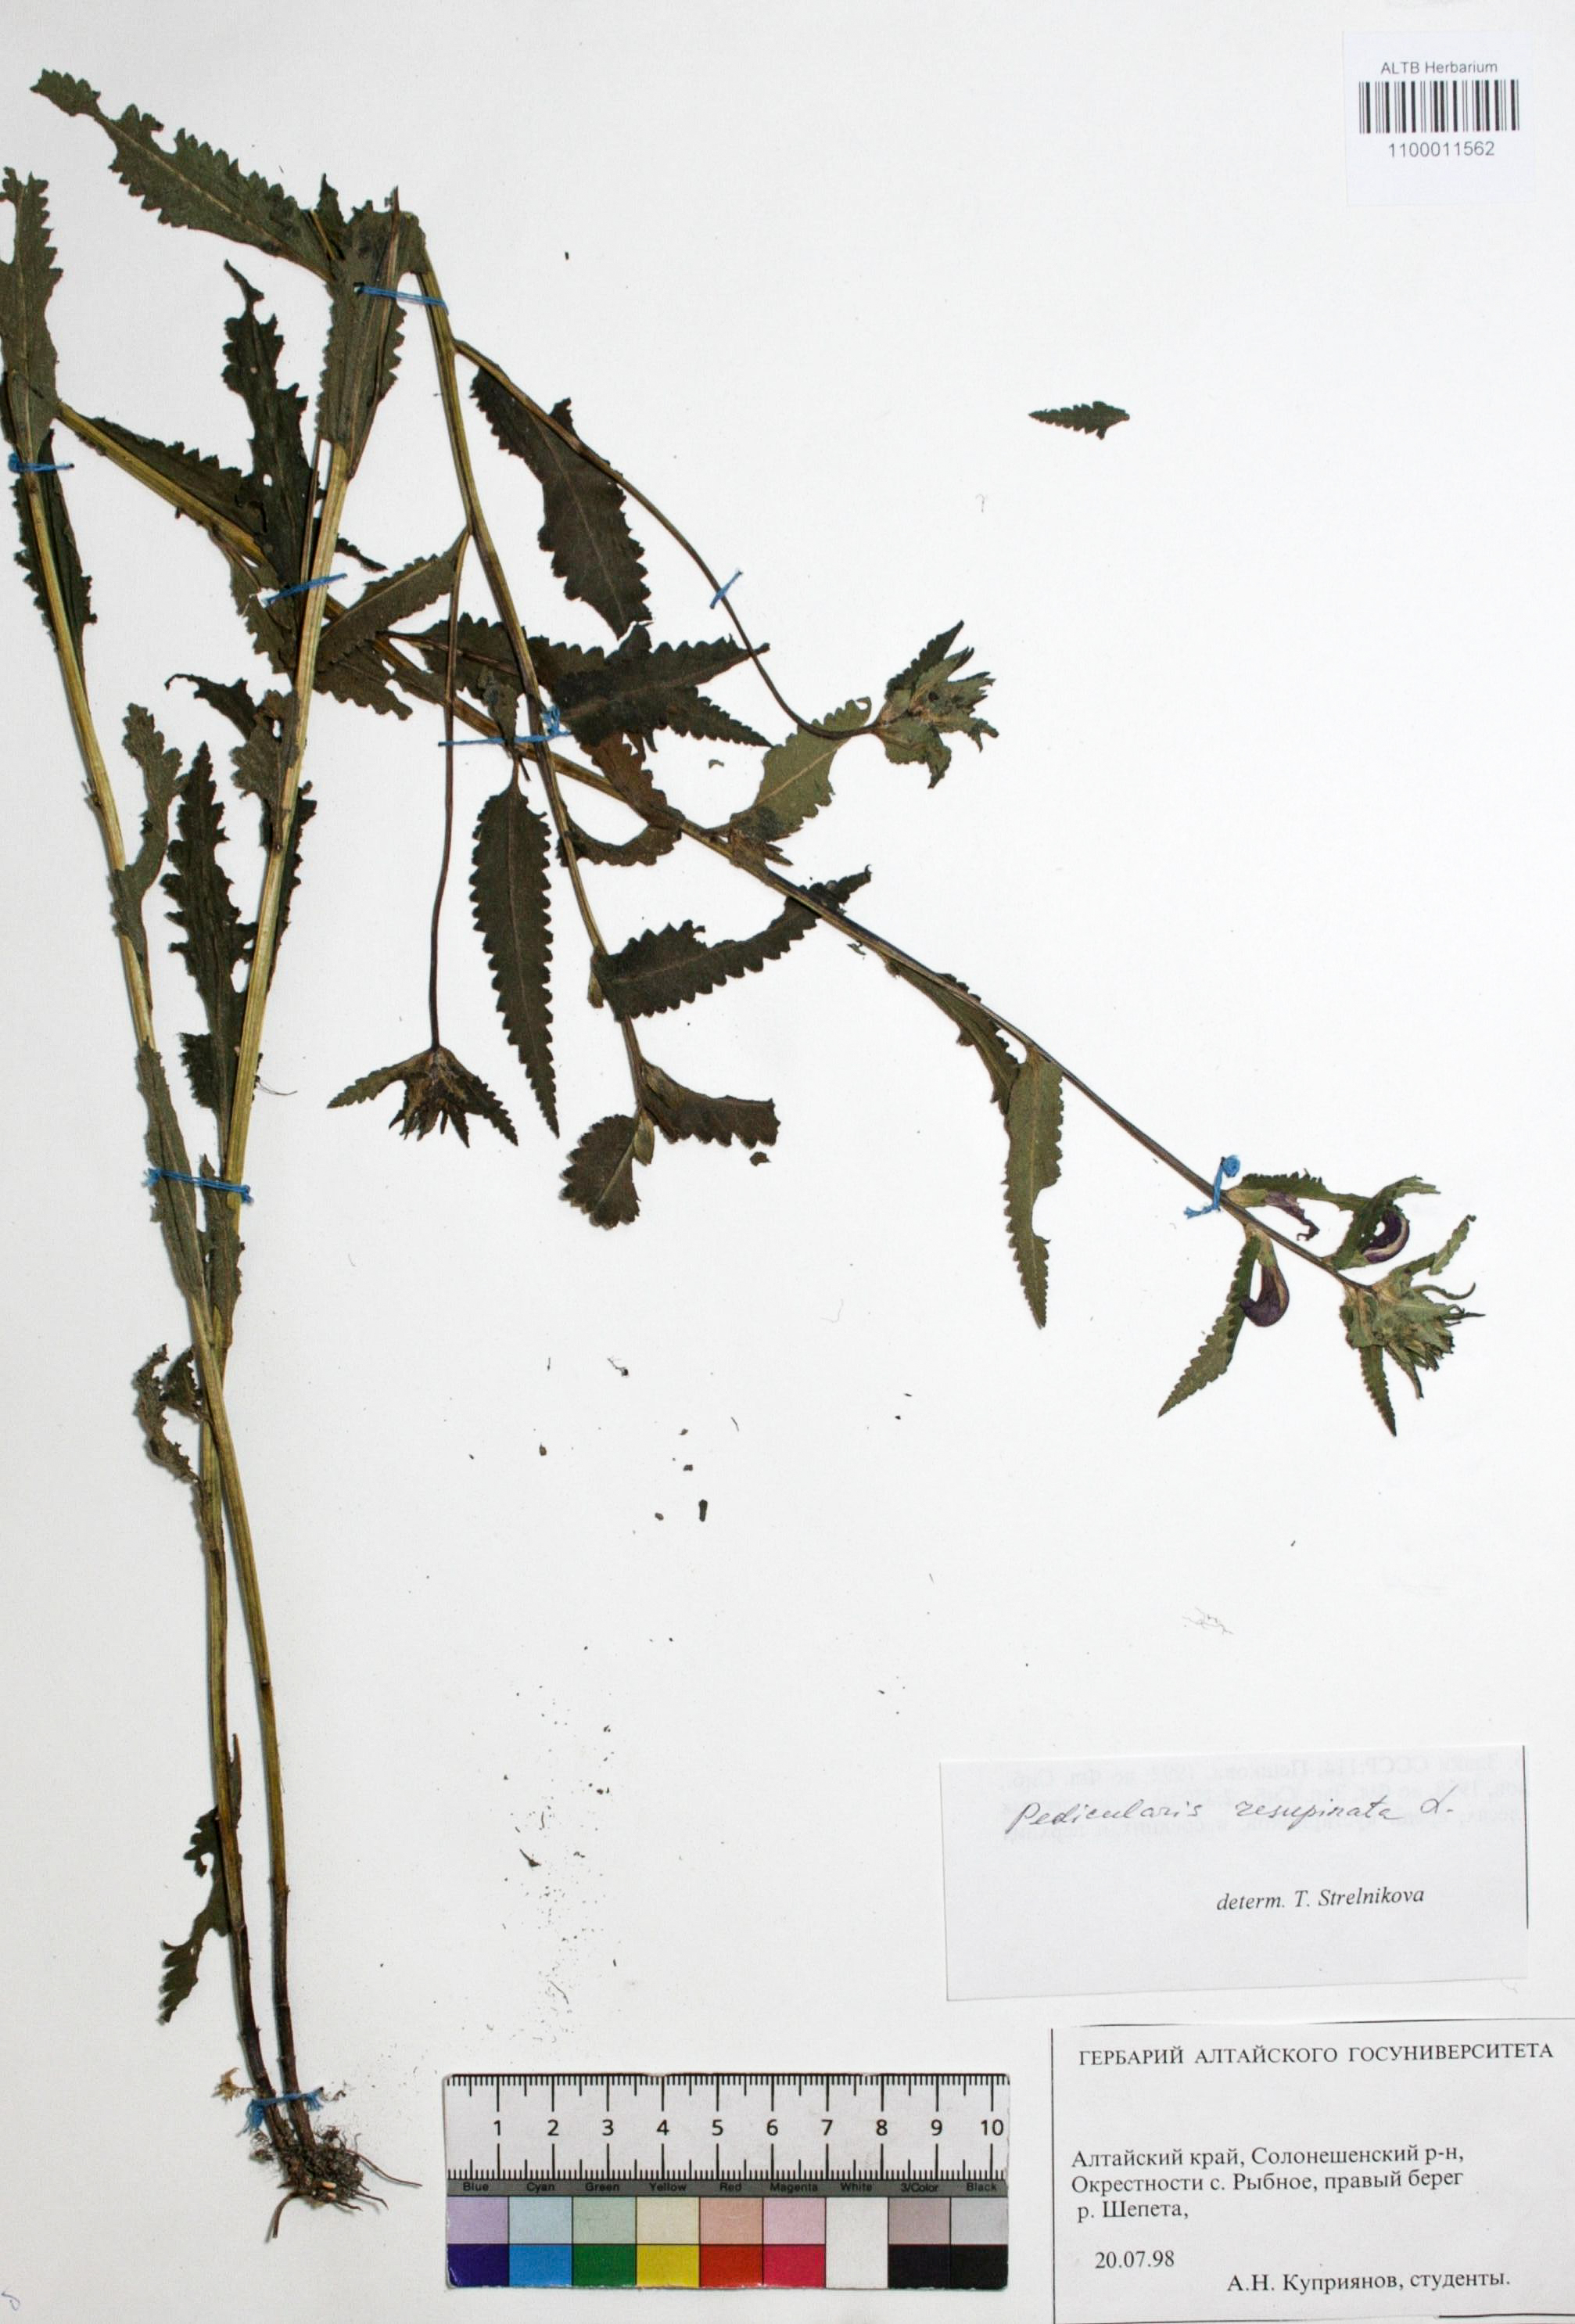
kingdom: Plantae
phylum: Tracheophyta
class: Magnoliopsida
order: Lamiales
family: Orobanchaceae
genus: Pedicularis
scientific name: Pedicularis resupinata
